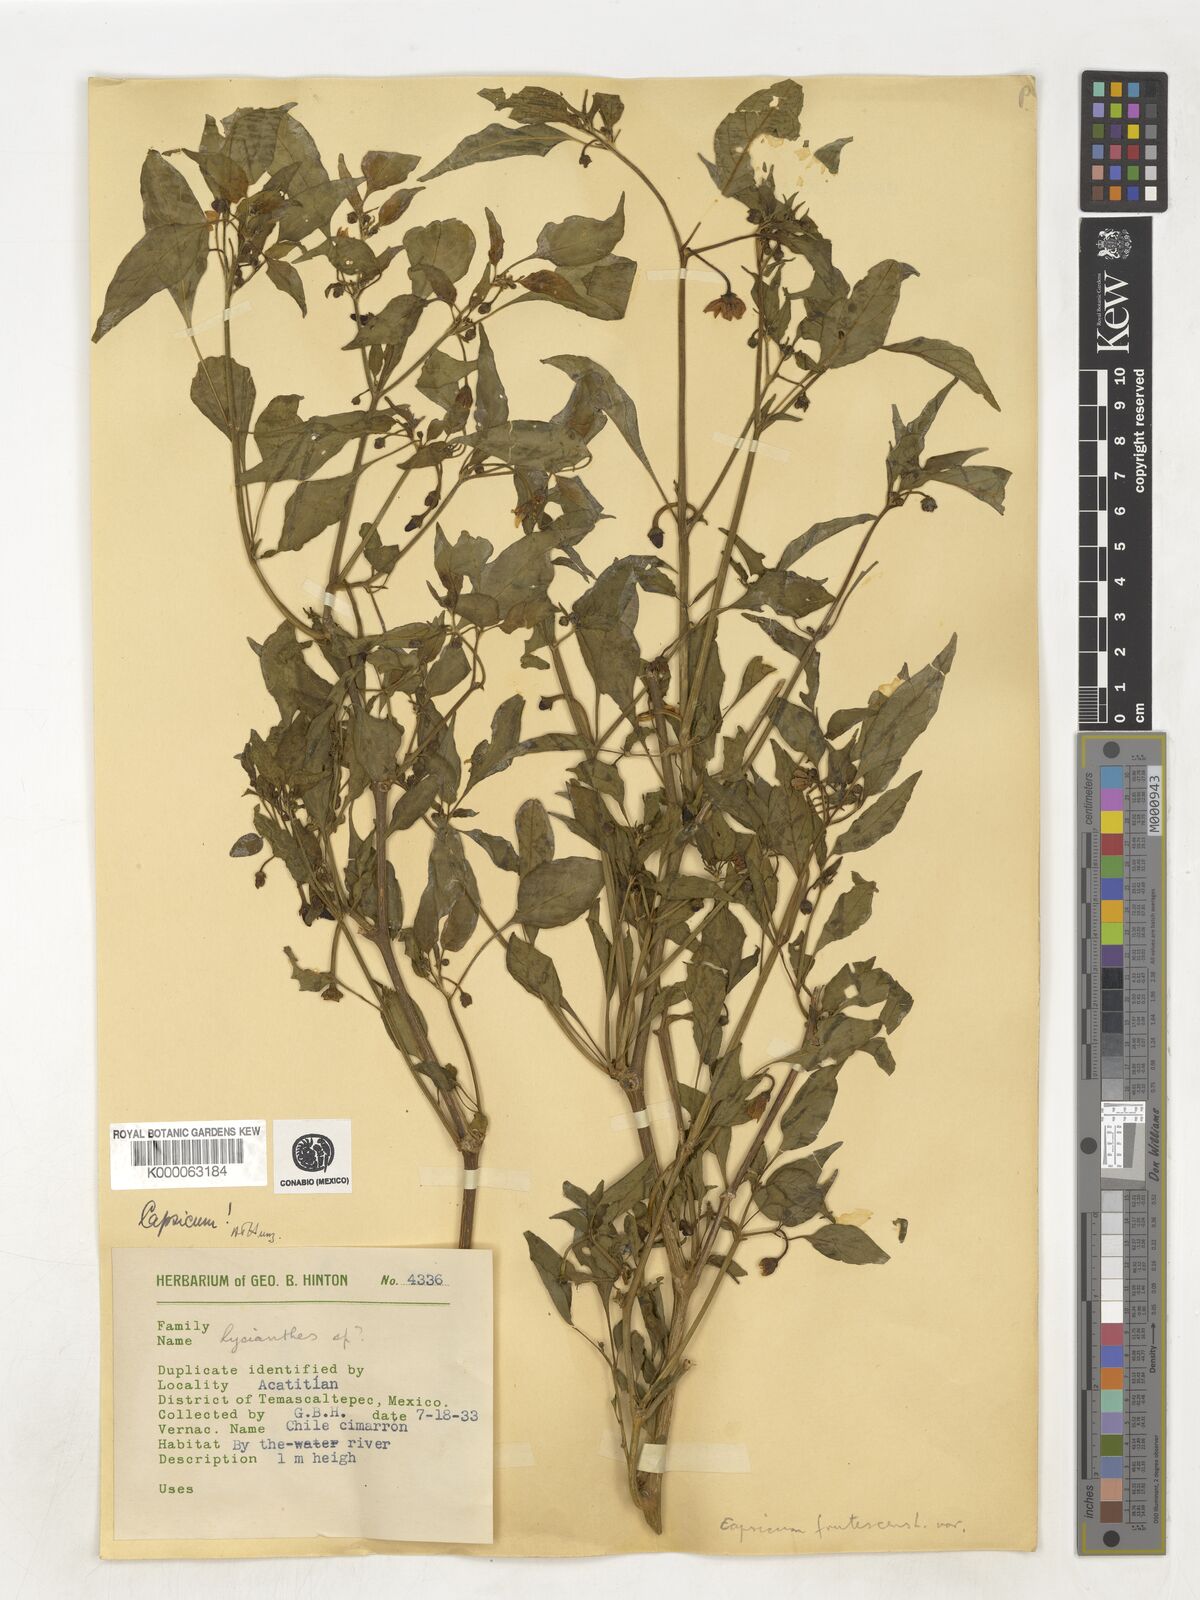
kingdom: Plantae
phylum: Tracheophyta
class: Magnoliopsida
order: Solanales
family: Solanaceae
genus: Capsicum
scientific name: Capsicum frutescens
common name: Bird pepper
